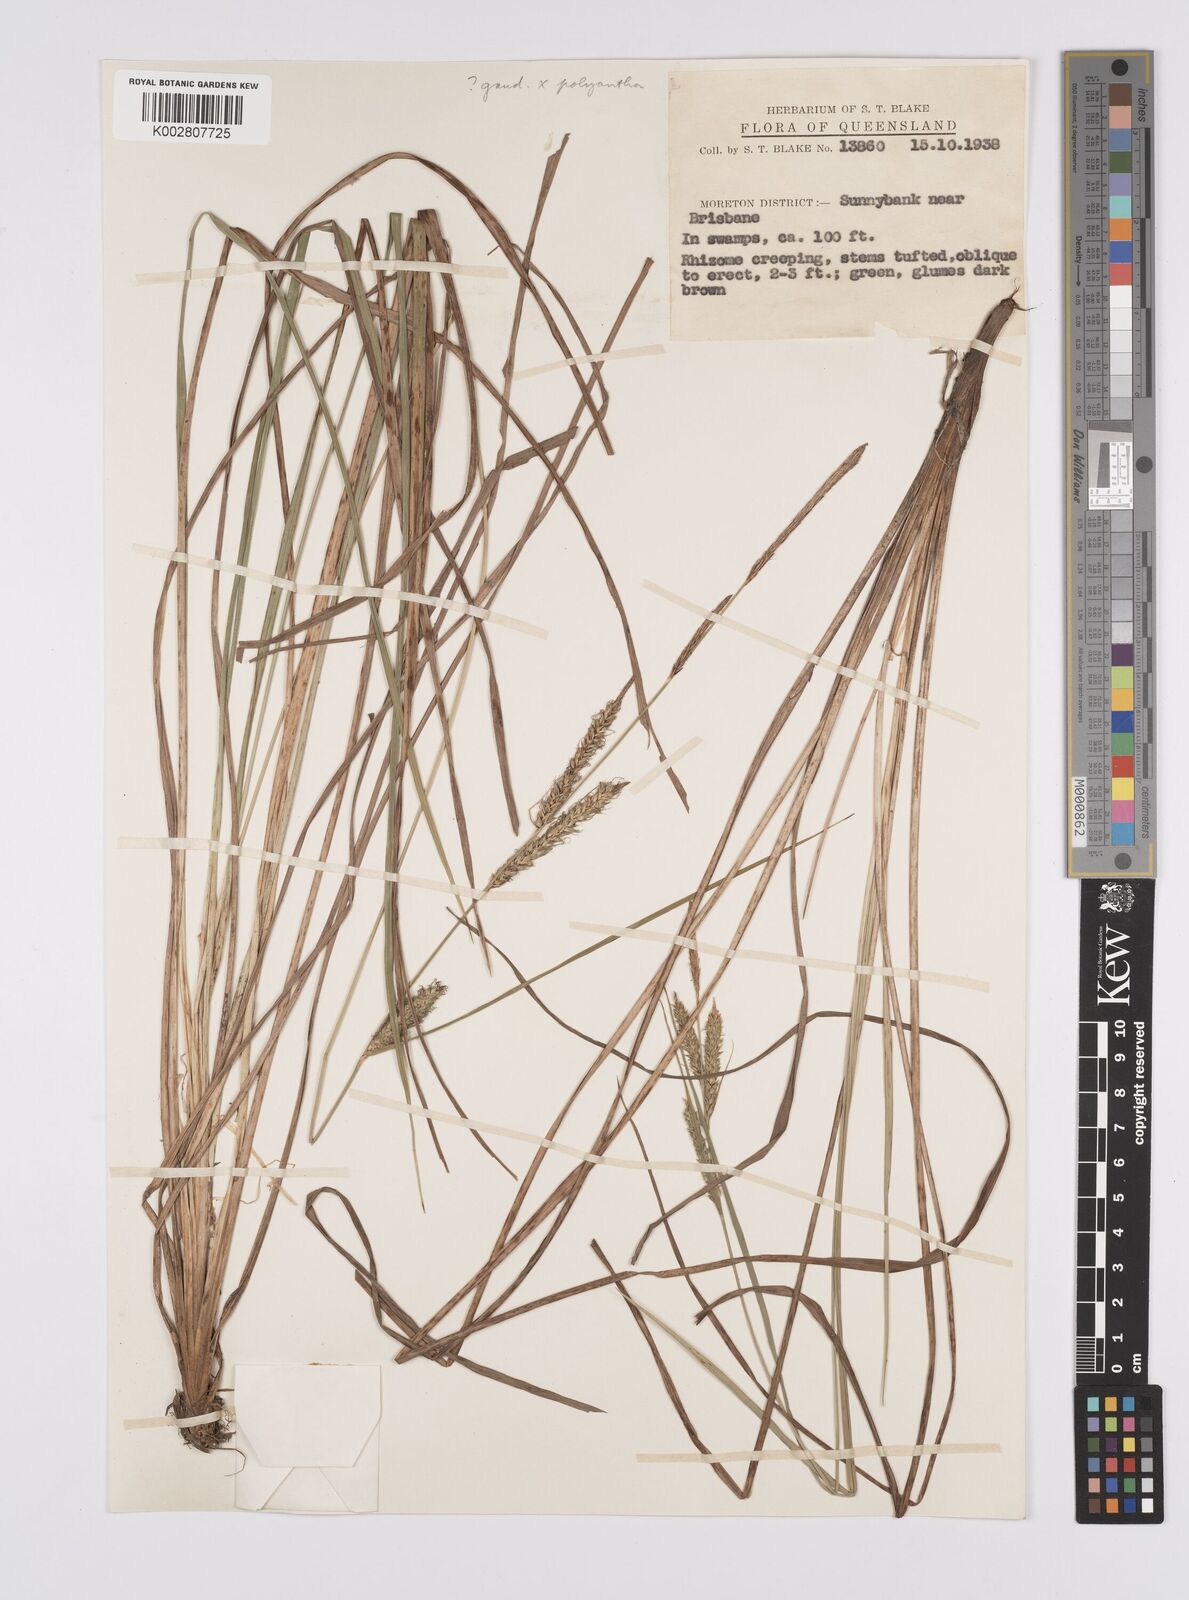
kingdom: Plantae
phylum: Tracheophyta
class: Liliopsida
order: Poales
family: Cyperaceae
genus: Carex
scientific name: Carex gaudichaudiana
